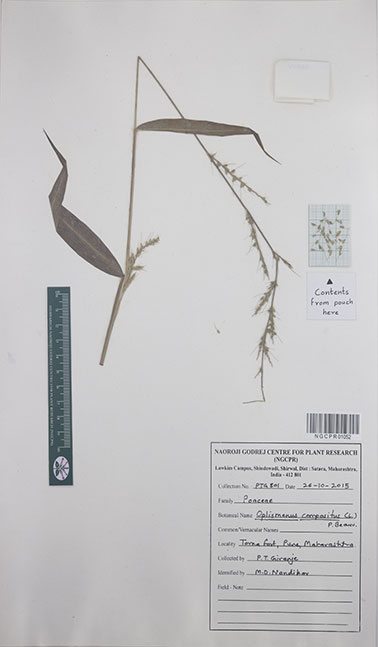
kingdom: Plantae
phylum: Tracheophyta
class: Liliopsida
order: Poales
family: Poaceae
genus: Oplismenus
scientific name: Oplismenus compositus
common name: Running mountain grass
